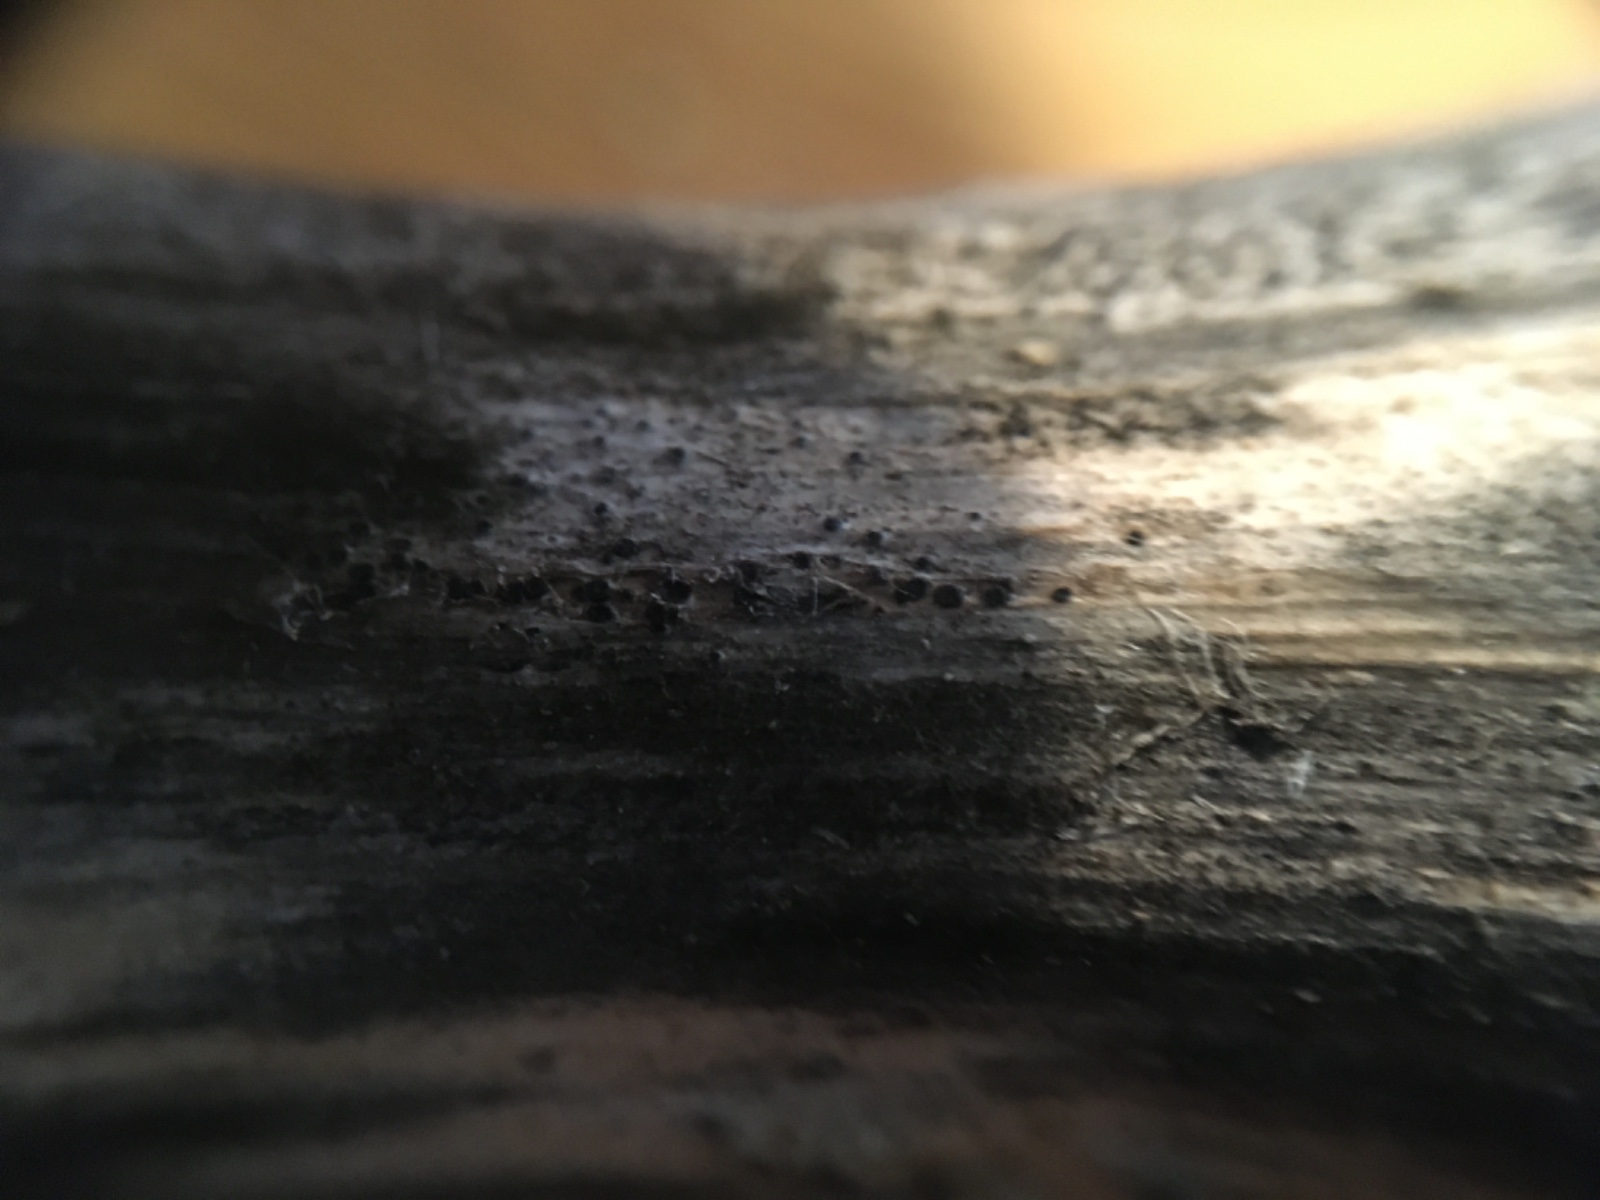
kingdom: Fungi
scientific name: Fungi
